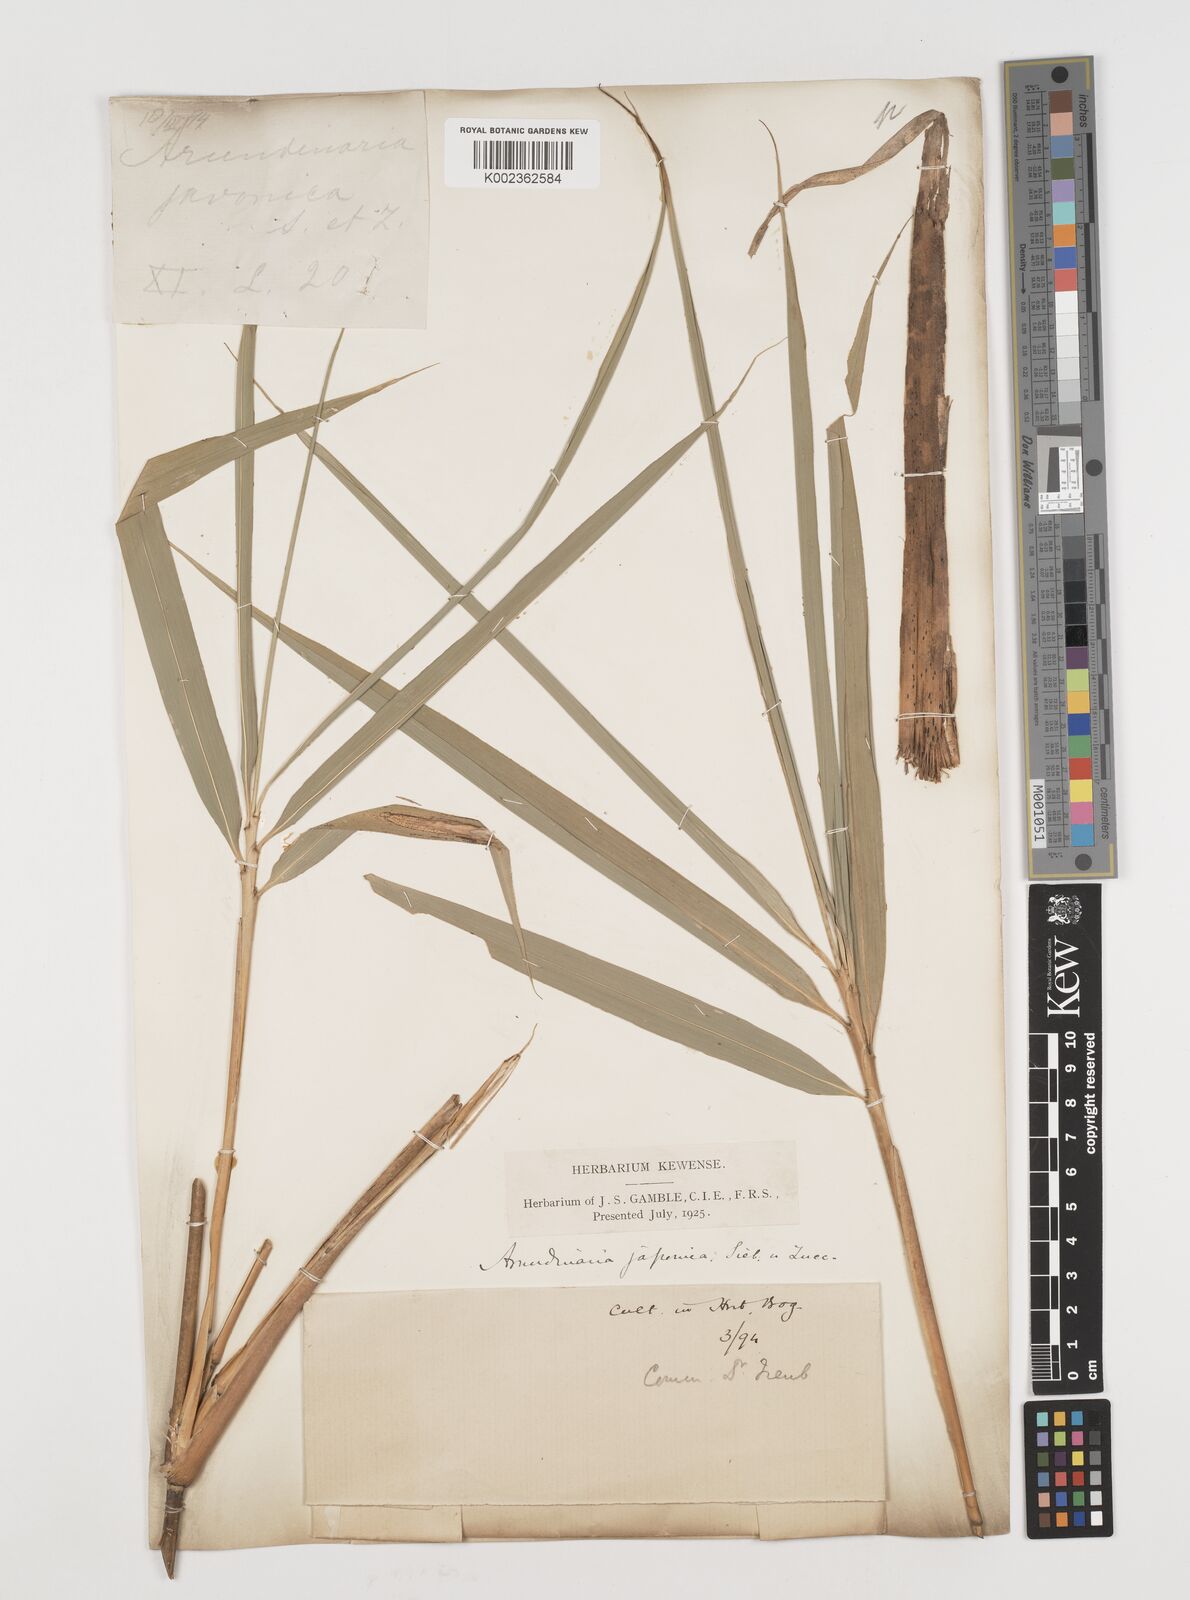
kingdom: Plantae
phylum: Tracheophyta
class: Liliopsida
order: Poales
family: Poaceae
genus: Pseudosasa
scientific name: Pseudosasa japonica
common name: Arrow bamboo
